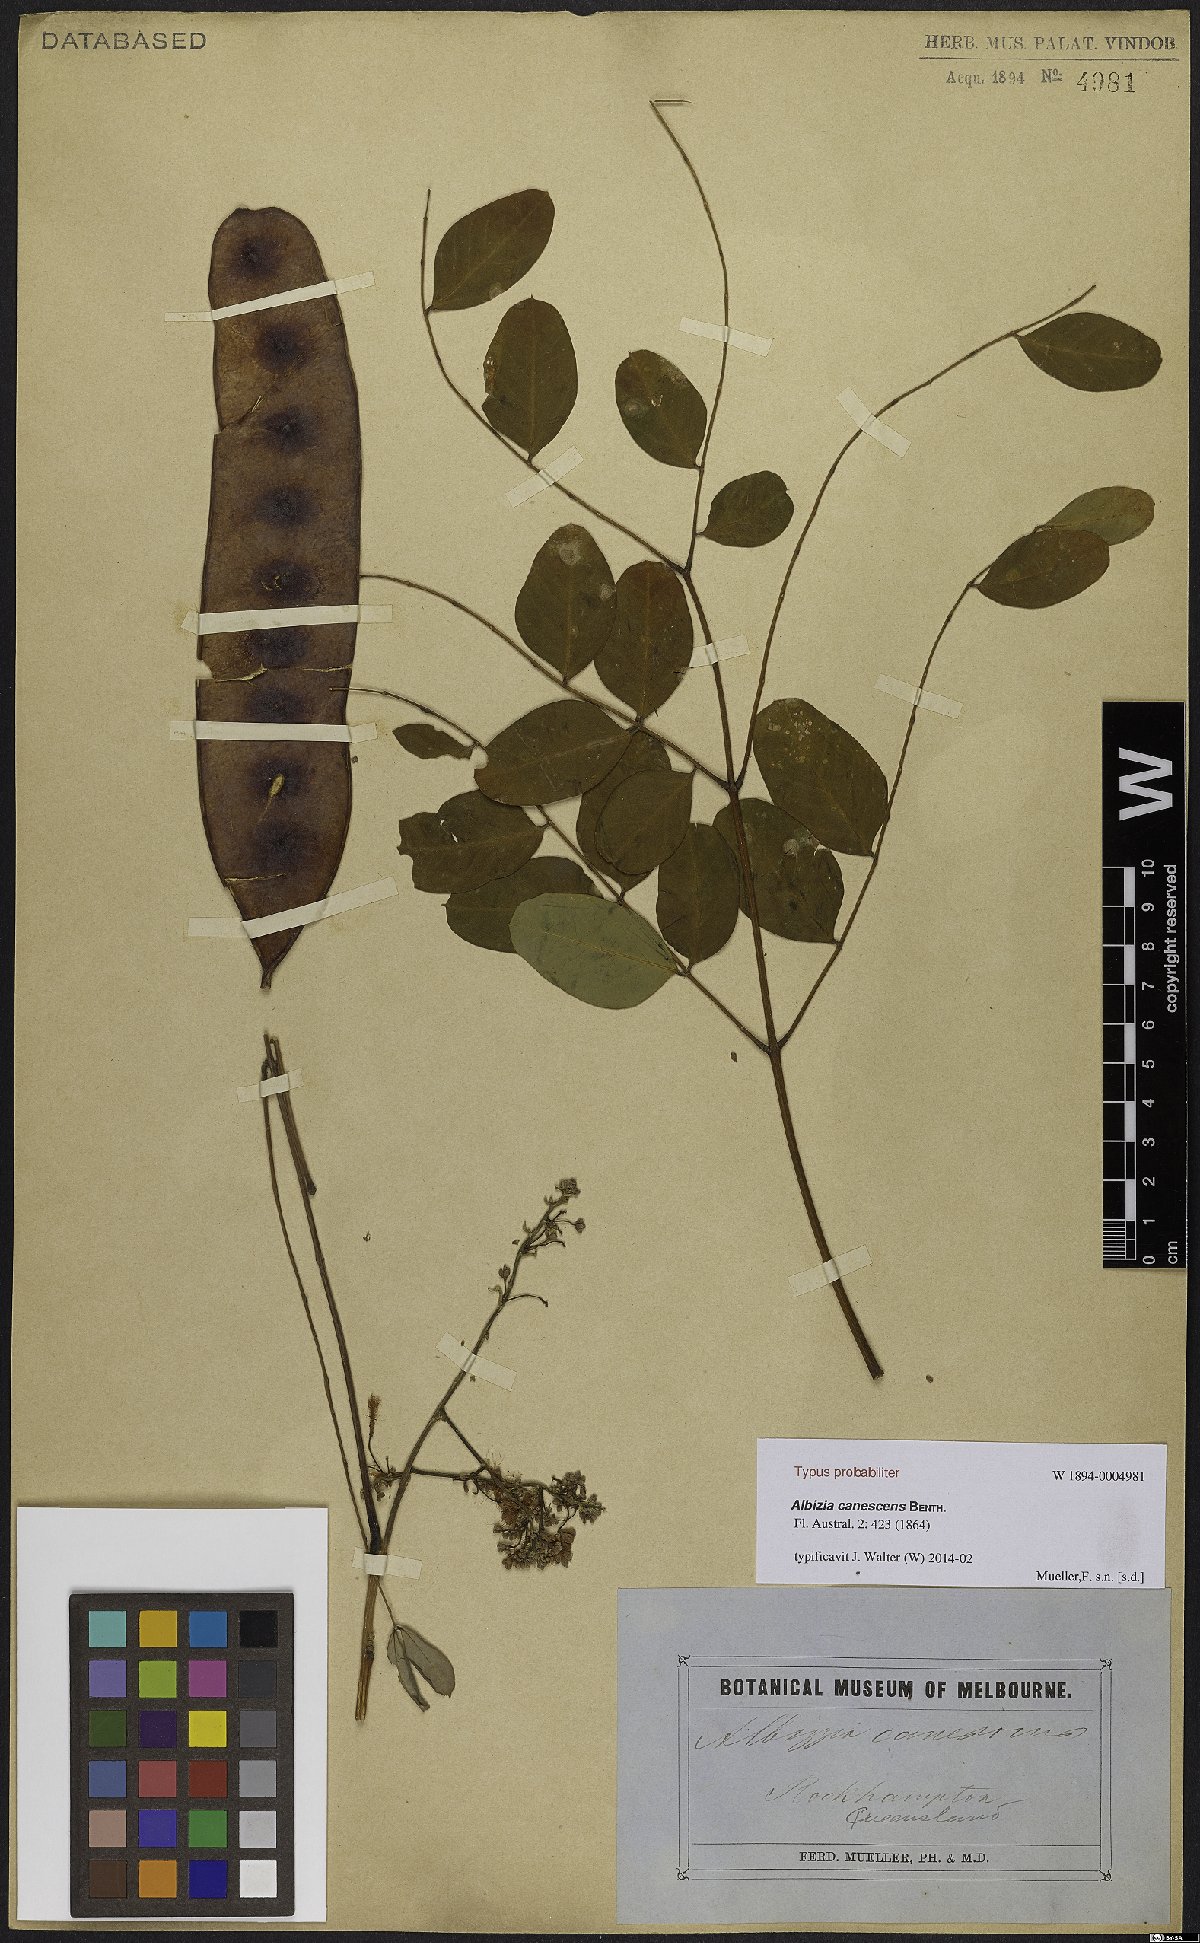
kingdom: Plantae
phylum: Tracheophyta
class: Magnoliopsida
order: Fabales
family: Fabaceae
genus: Albizia
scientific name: Albizia canescens
